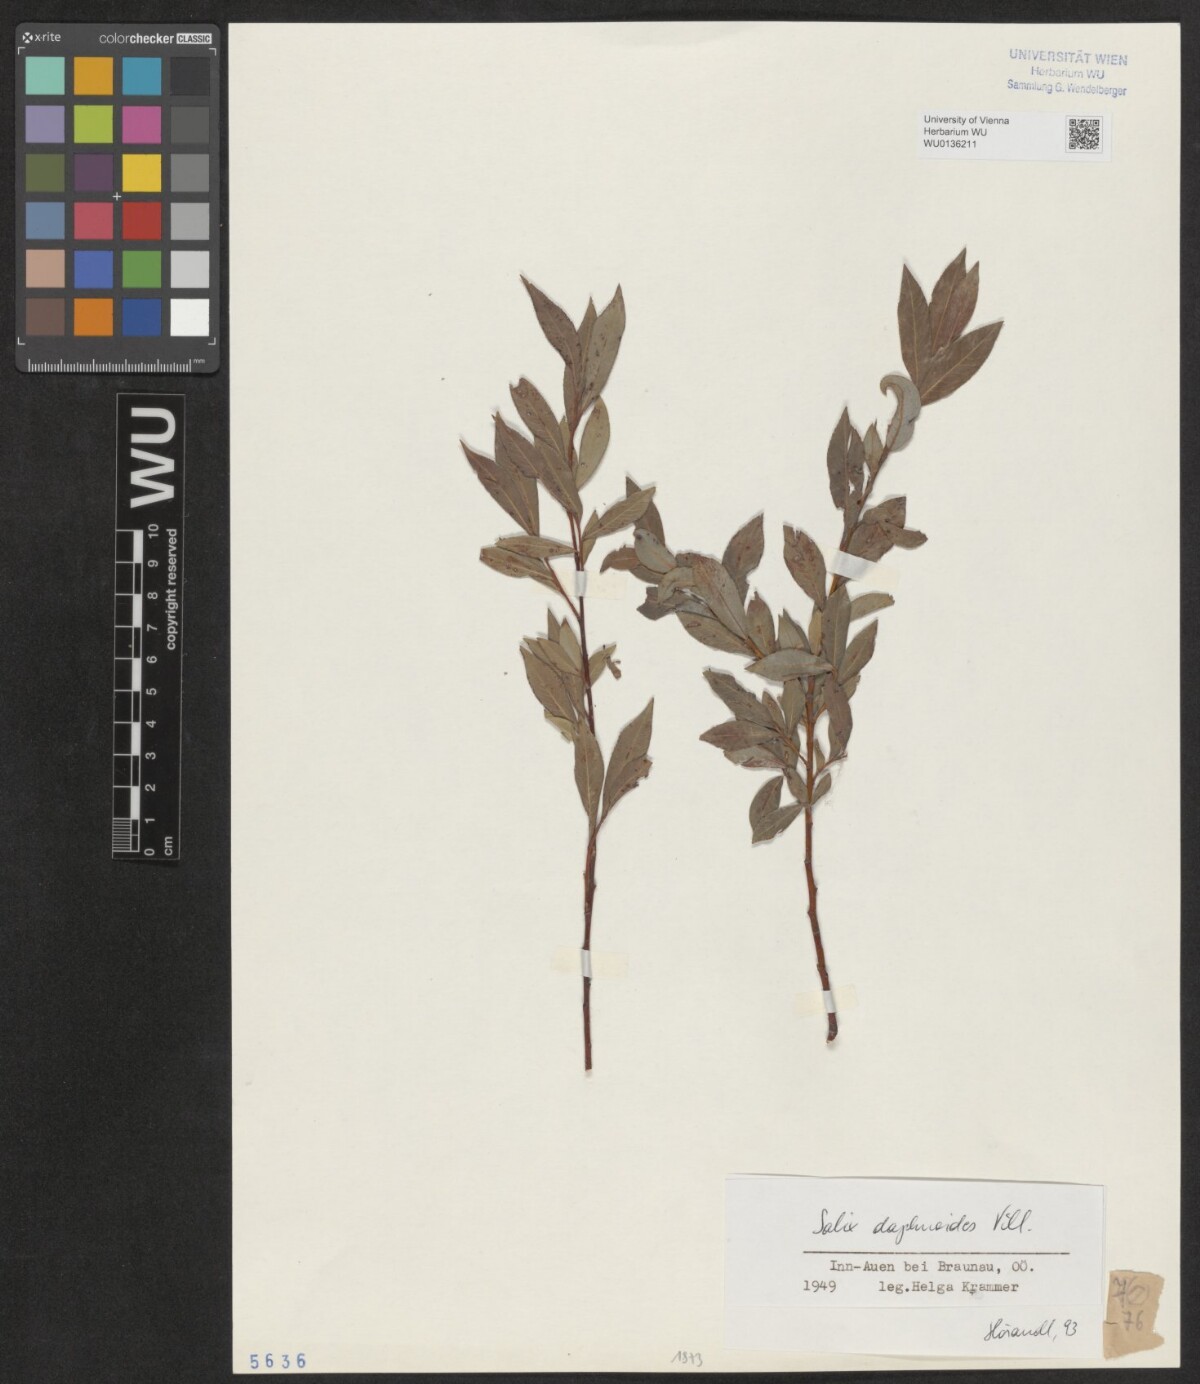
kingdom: Plantae
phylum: Tracheophyta
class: Magnoliopsida
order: Malpighiales
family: Salicaceae
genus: Salix
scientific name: Salix daphnoides
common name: European violet-willow
